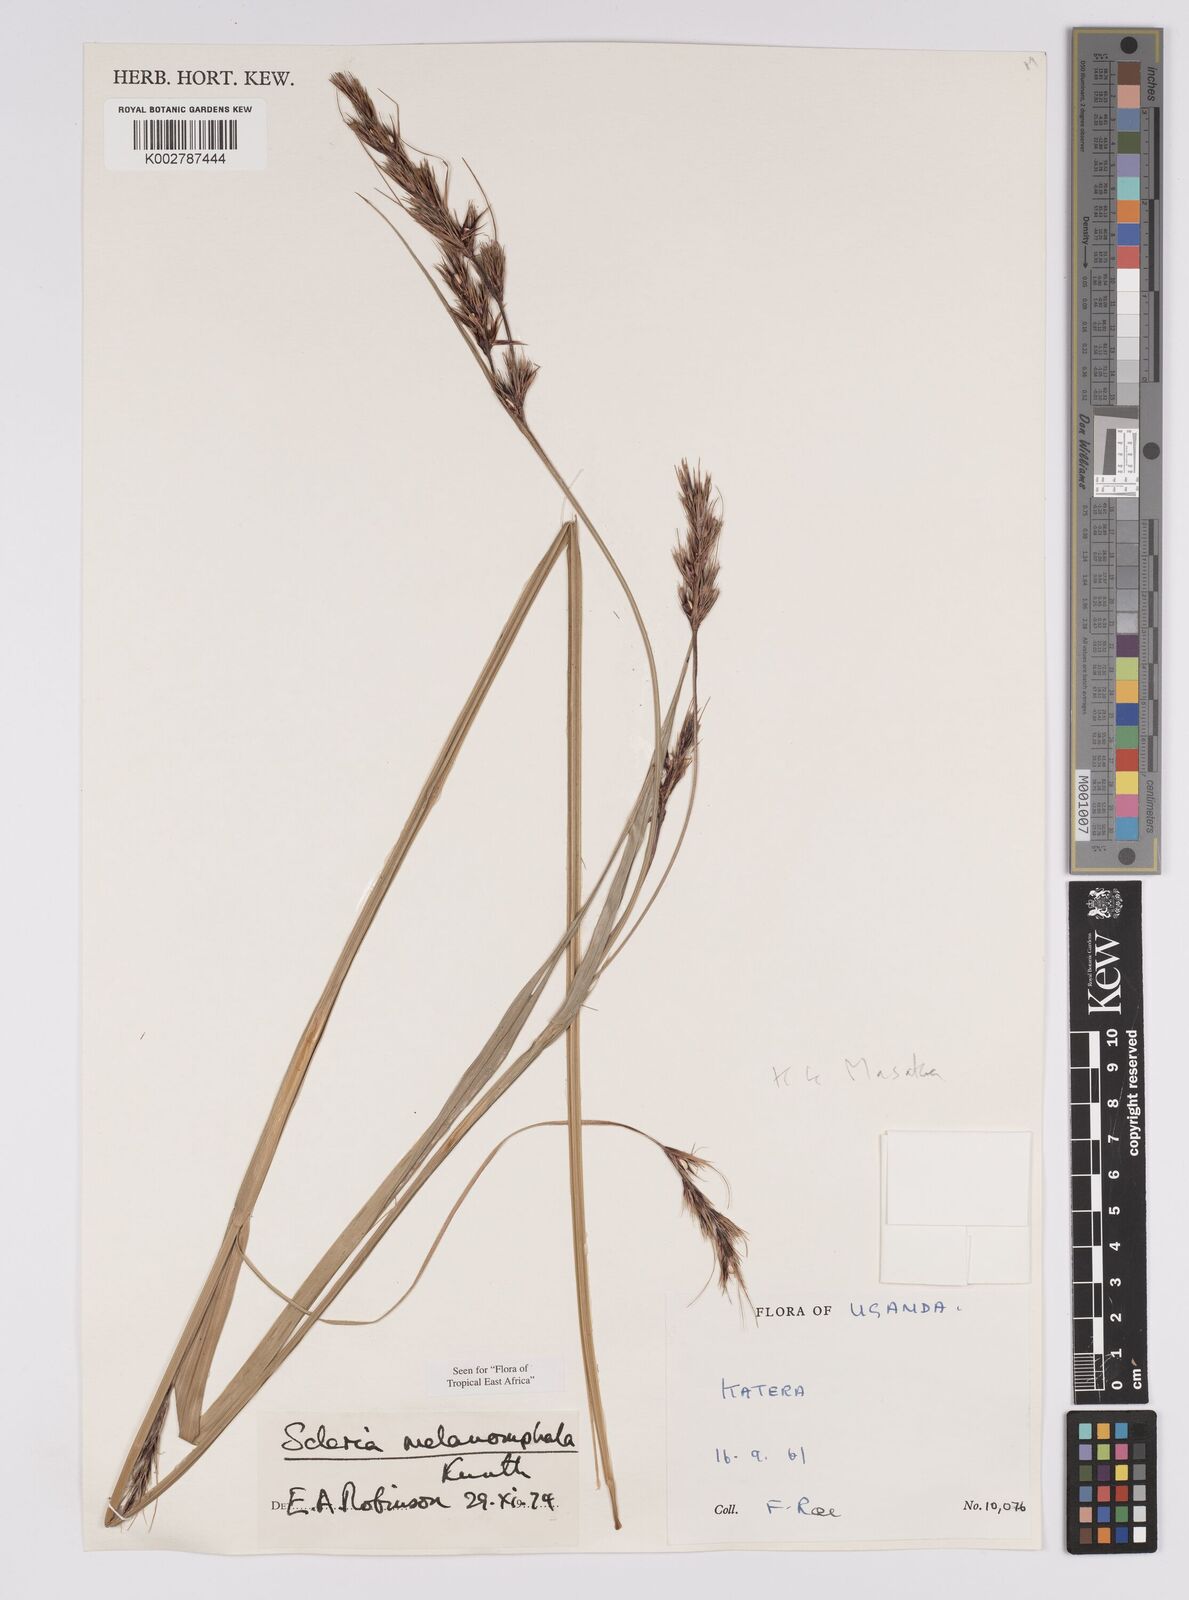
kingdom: Plantae
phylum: Tracheophyta
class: Liliopsida
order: Poales
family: Cyperaceae
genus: Scleria
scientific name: Scleria melanomphala
